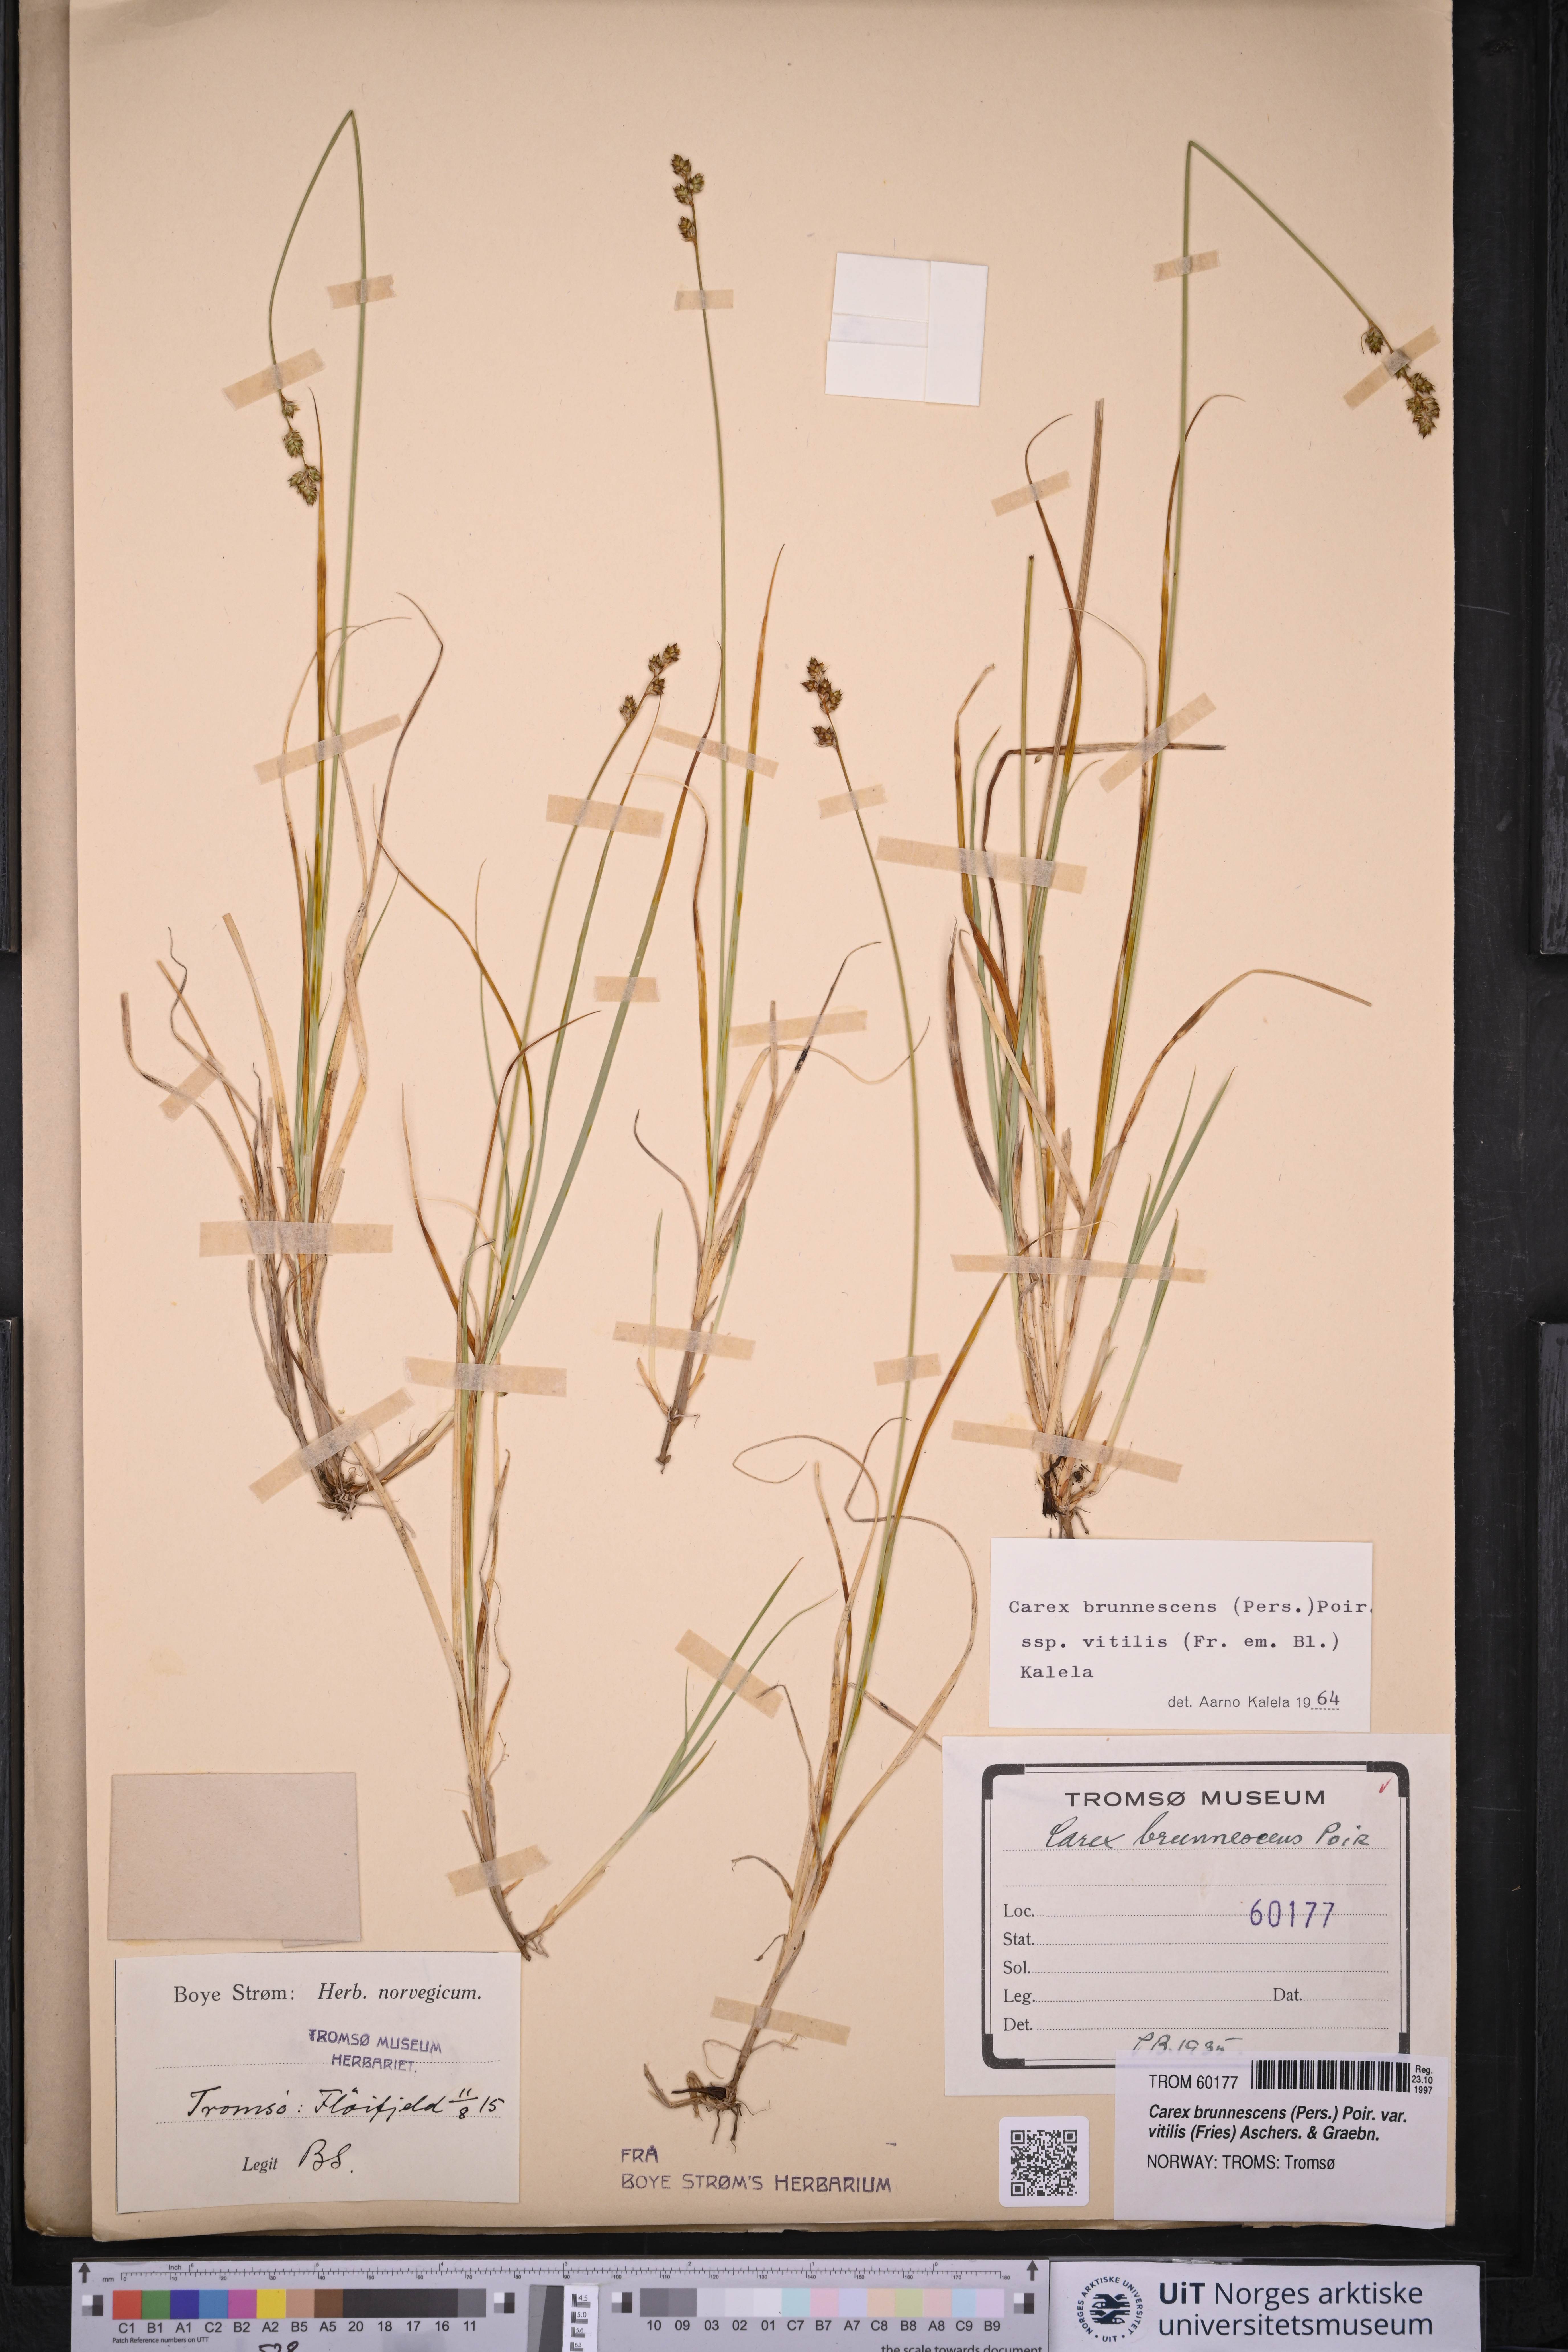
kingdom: Plantae
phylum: Tracheophyta
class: Liliopsida
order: Poales
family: Cyperaceae
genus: Carex
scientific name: Carex brunnescens
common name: Brown sedge
